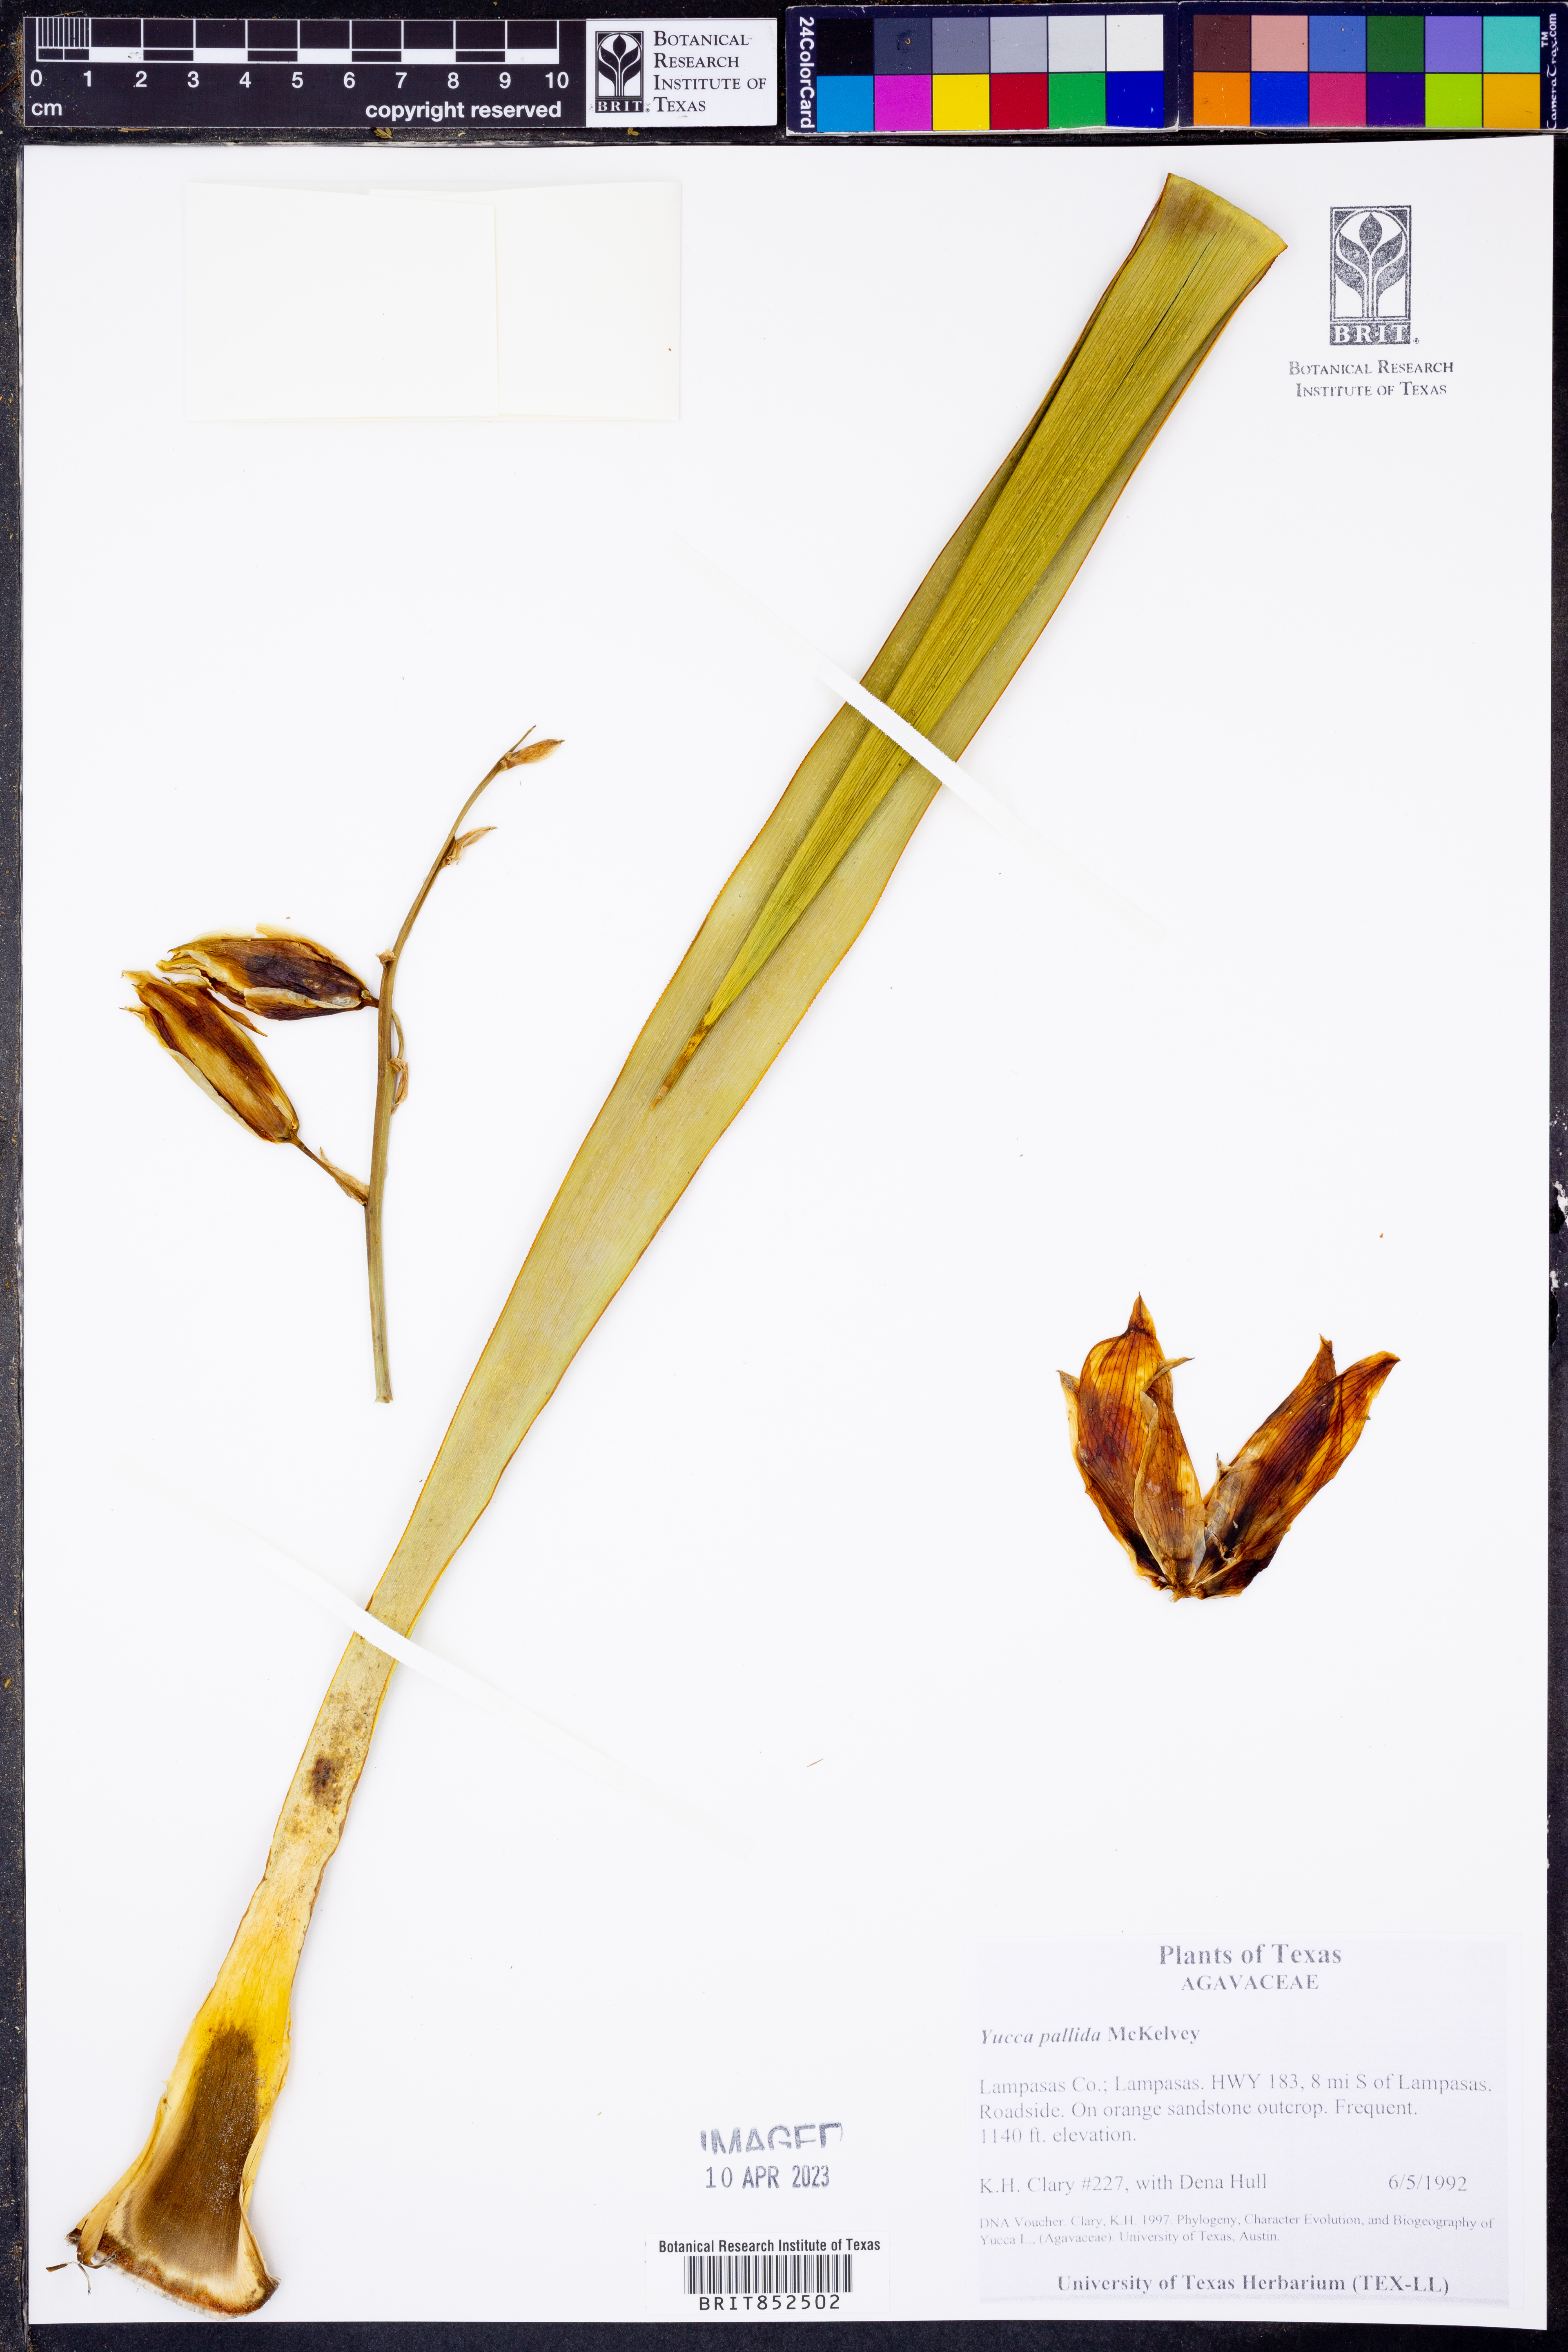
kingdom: Plantae
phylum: Tracheophyta
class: Liliopsida
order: Asparagales
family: Asparagaceae
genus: Yucca
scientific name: Yucca pallida
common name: Pale leaf yucca
